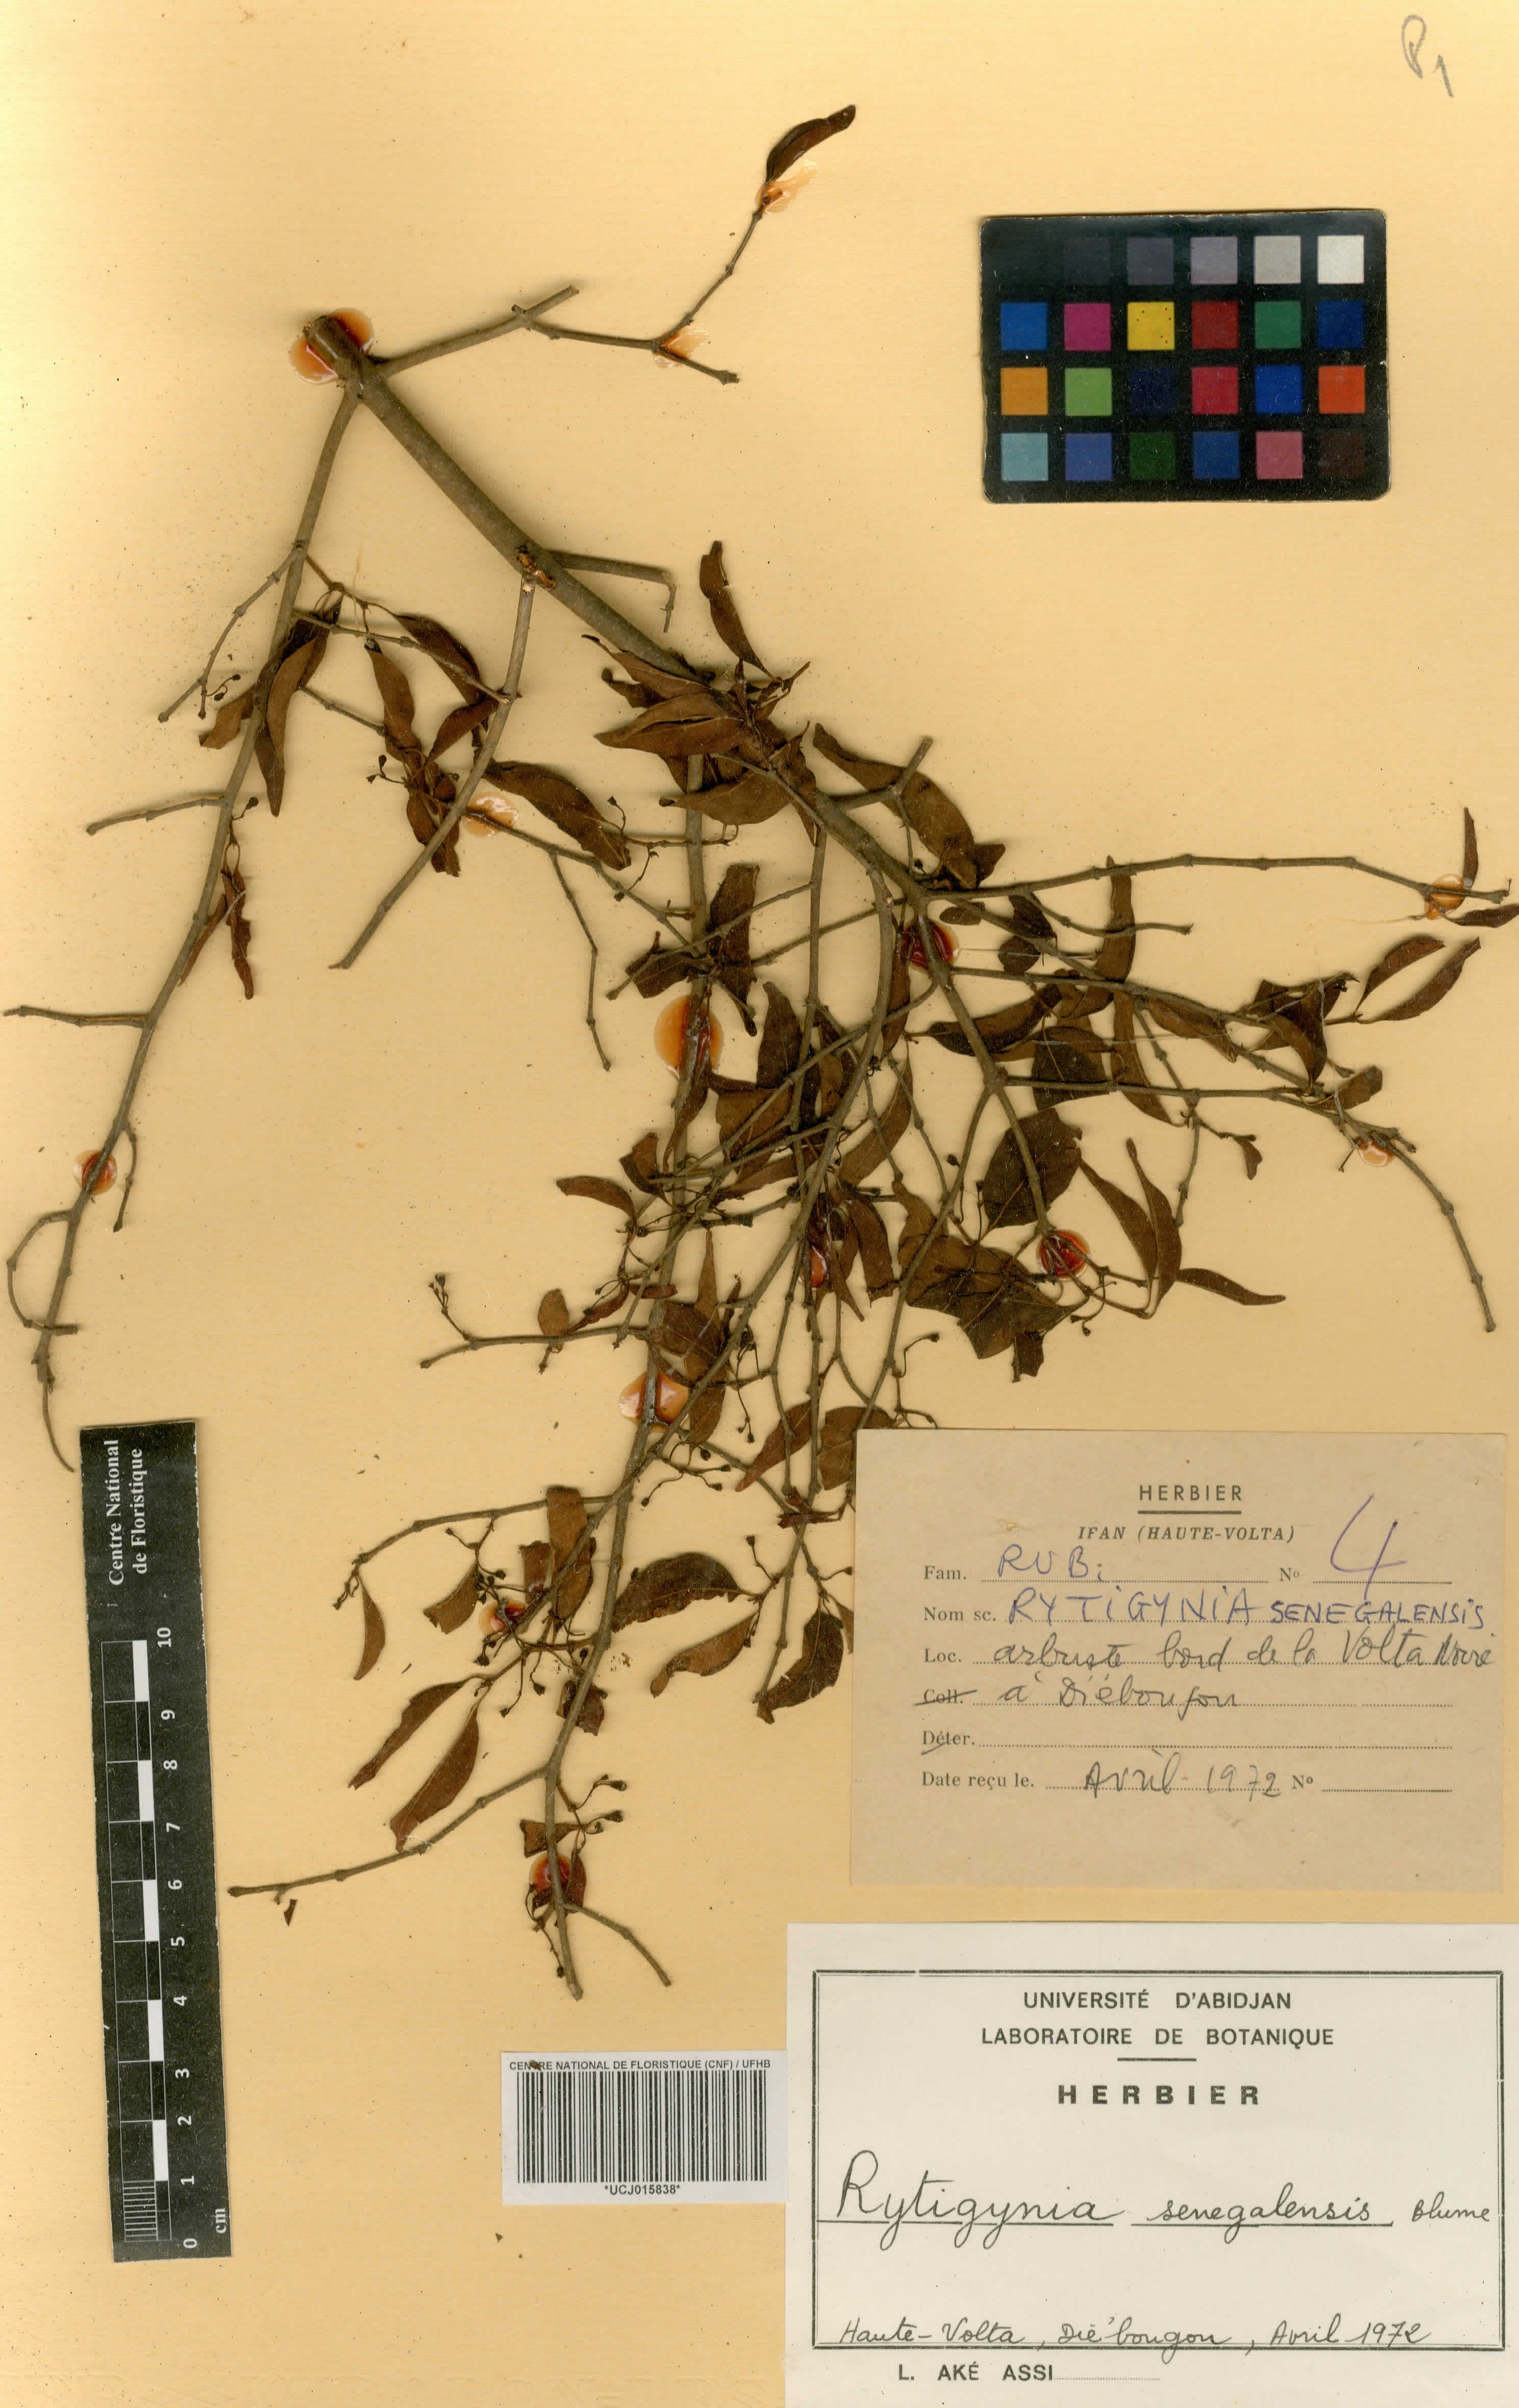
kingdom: Plantae
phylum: Tracheophyta
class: Magnoliopsida
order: Gentianales
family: Rubiaceae
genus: Rytigynia
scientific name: Rytigynia senegalensis
